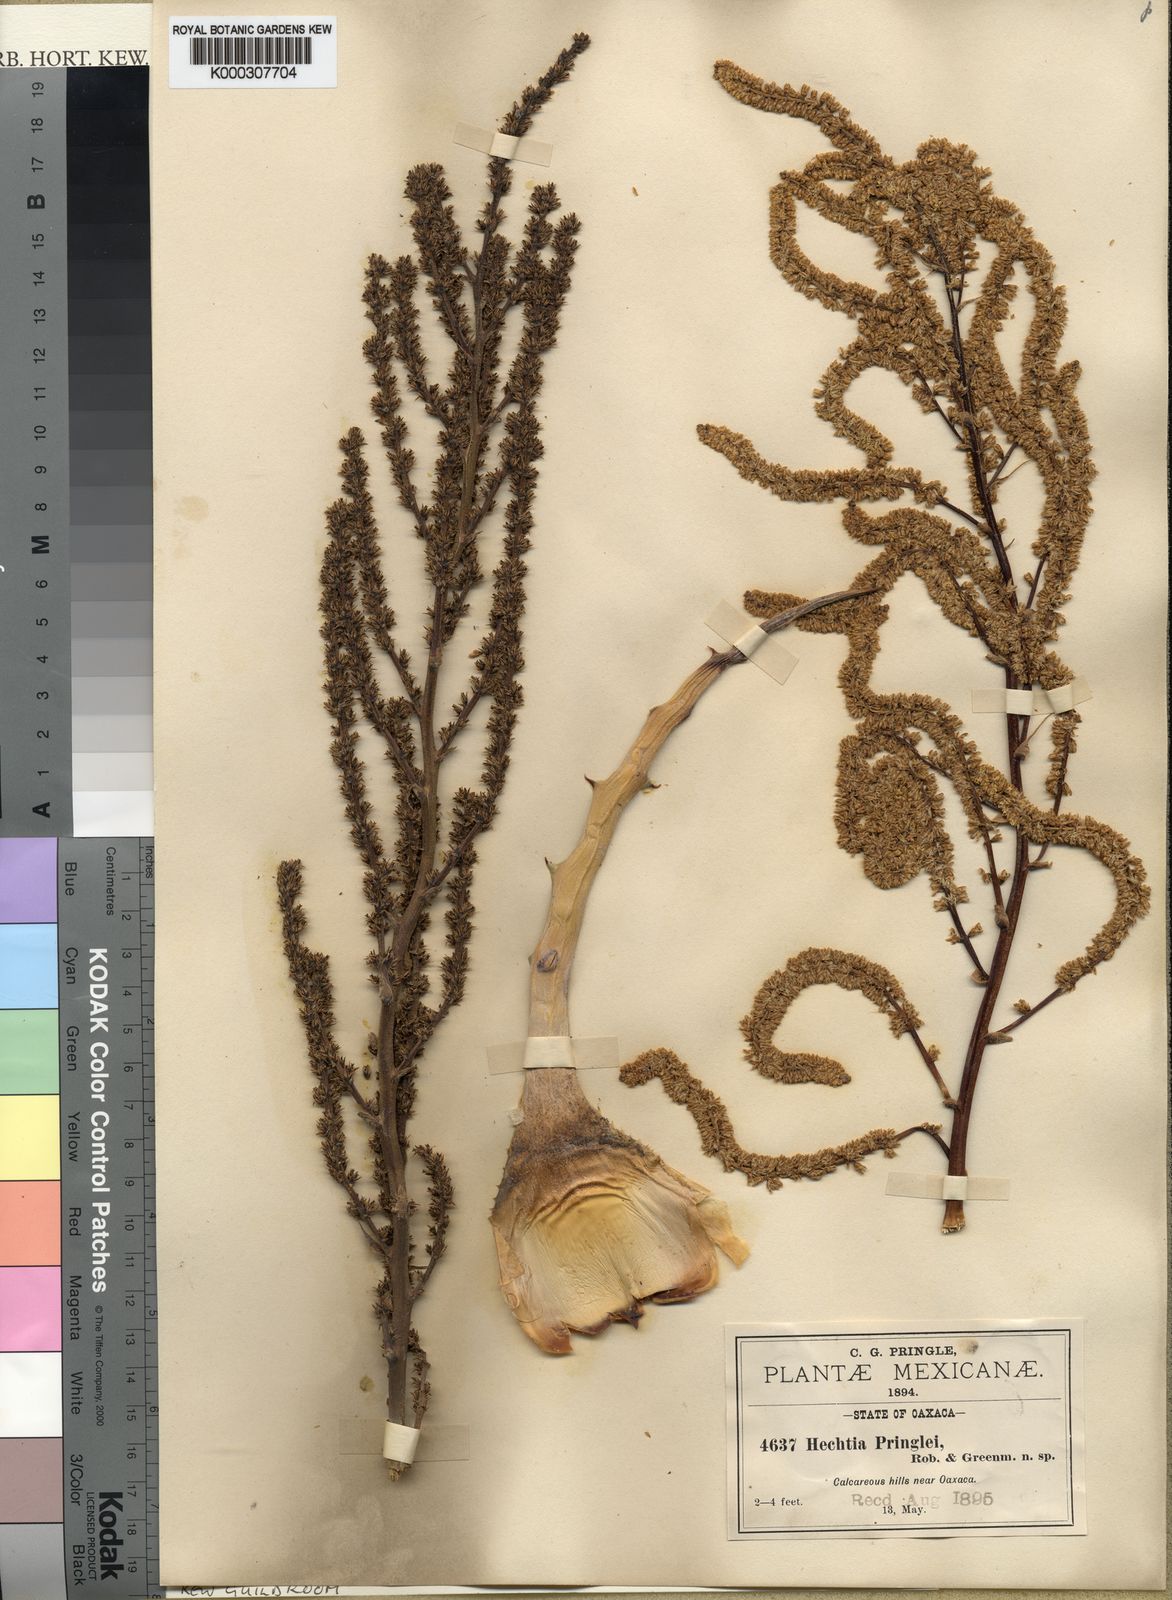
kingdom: Plantae
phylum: Tracheophyta
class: Liliopsida
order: Poales
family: Bromeliaceae
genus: Hechtia
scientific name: Hechtia pringlei
